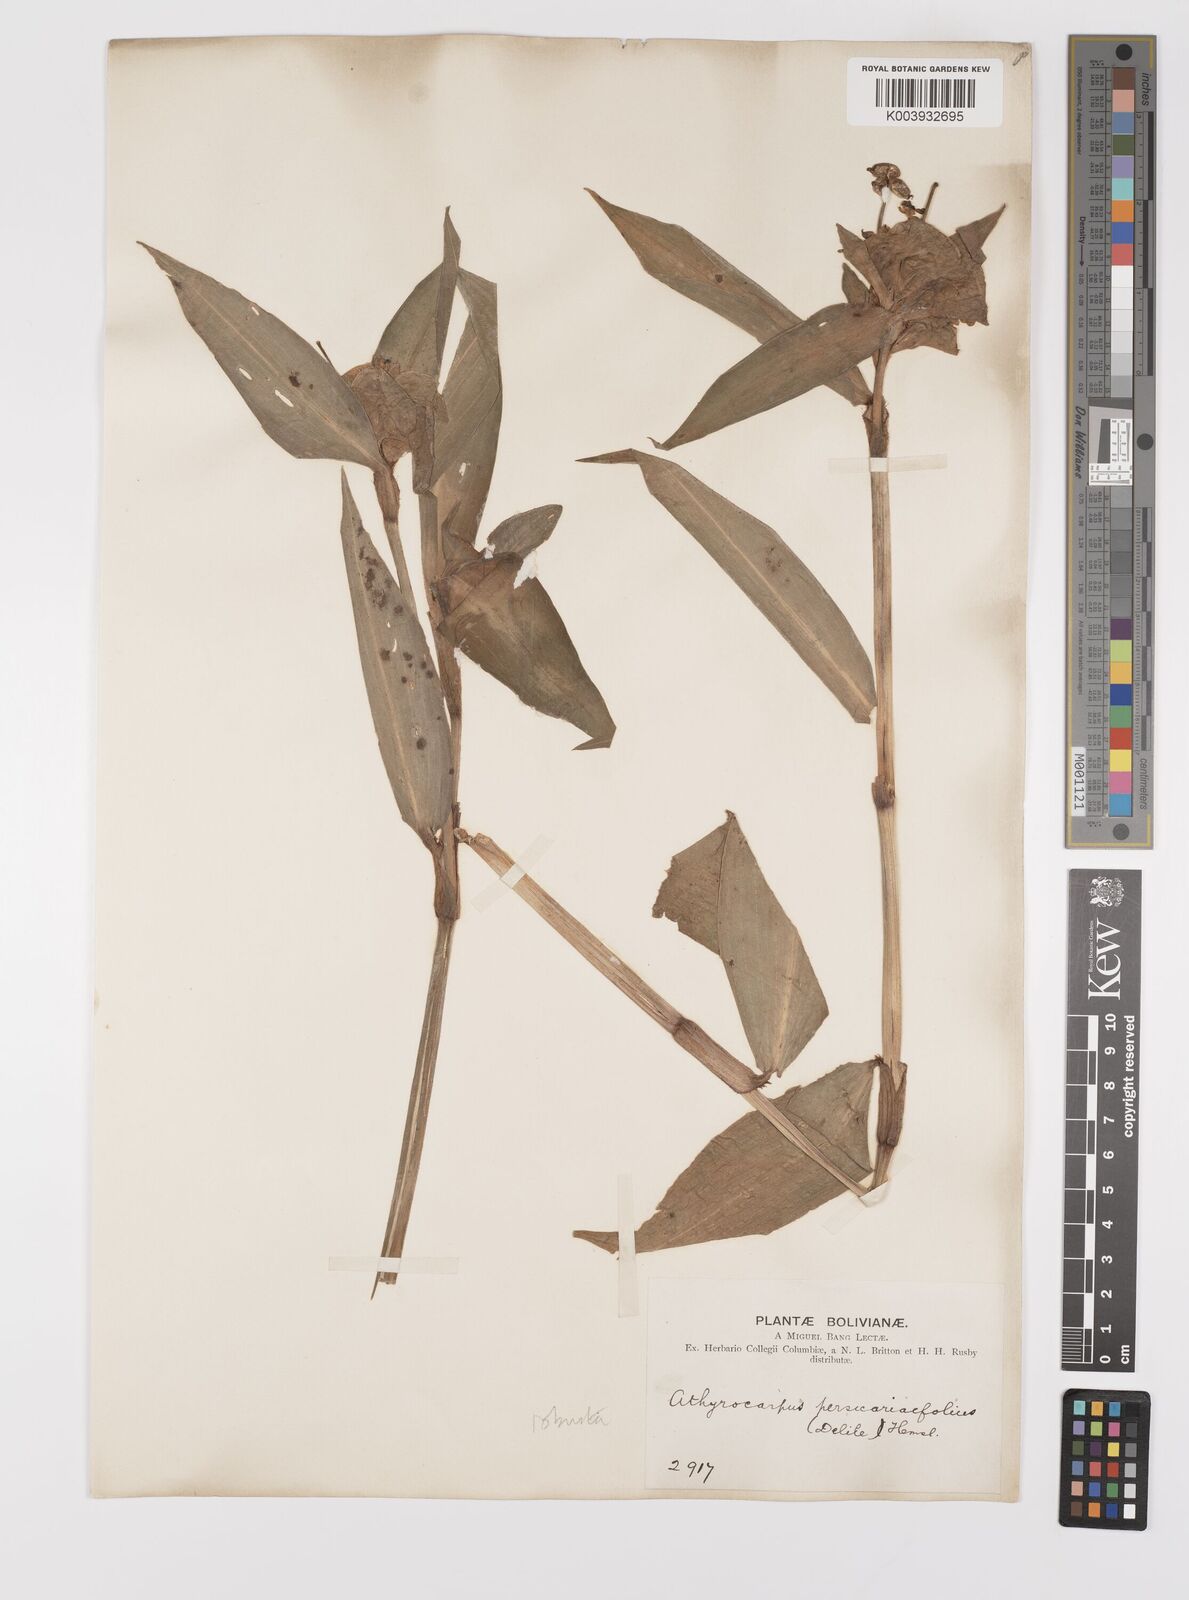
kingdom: Plantae
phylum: Tracheophyta
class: Liliopsida
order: Commelinales
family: Commelinaceae
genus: Commelina
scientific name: Commelina obliqua
